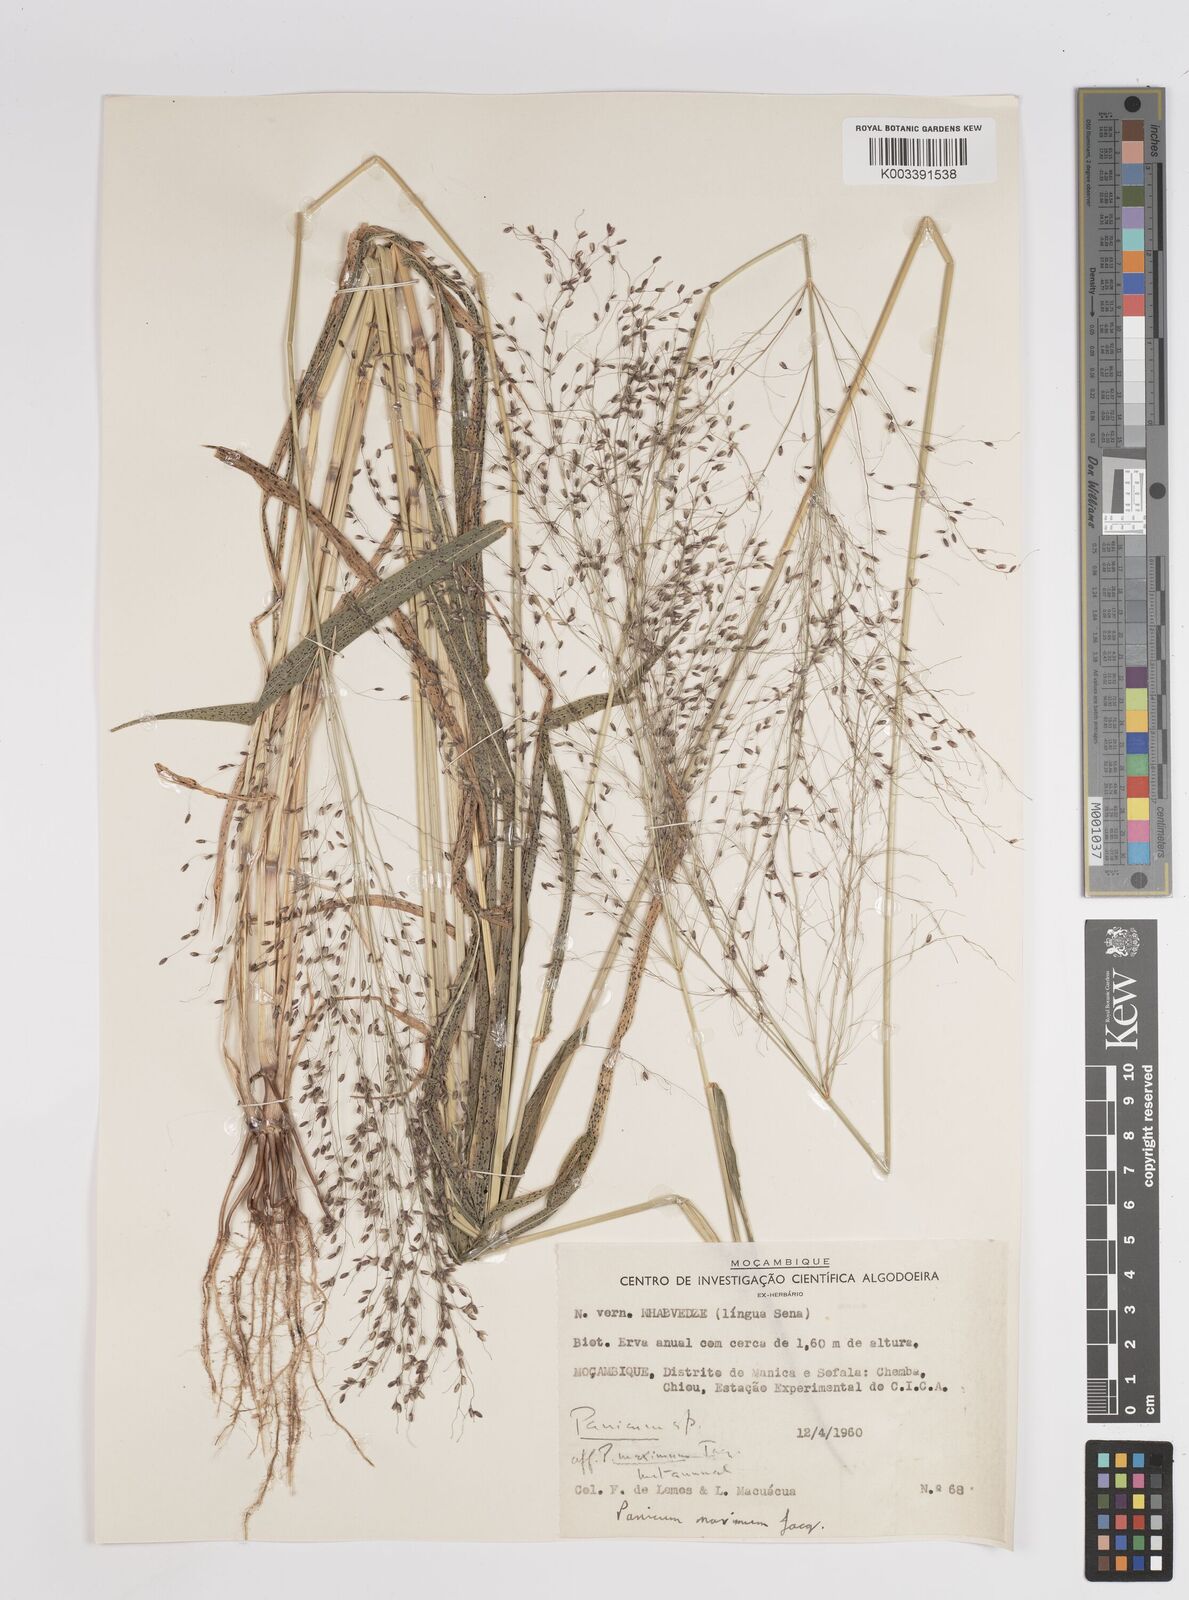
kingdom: Plantae
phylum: Tracheophyta
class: Liliopsida
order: Poales
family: Poaceae
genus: Megathyrsus
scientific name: Megathyrsus maximus
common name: Guineagrass
